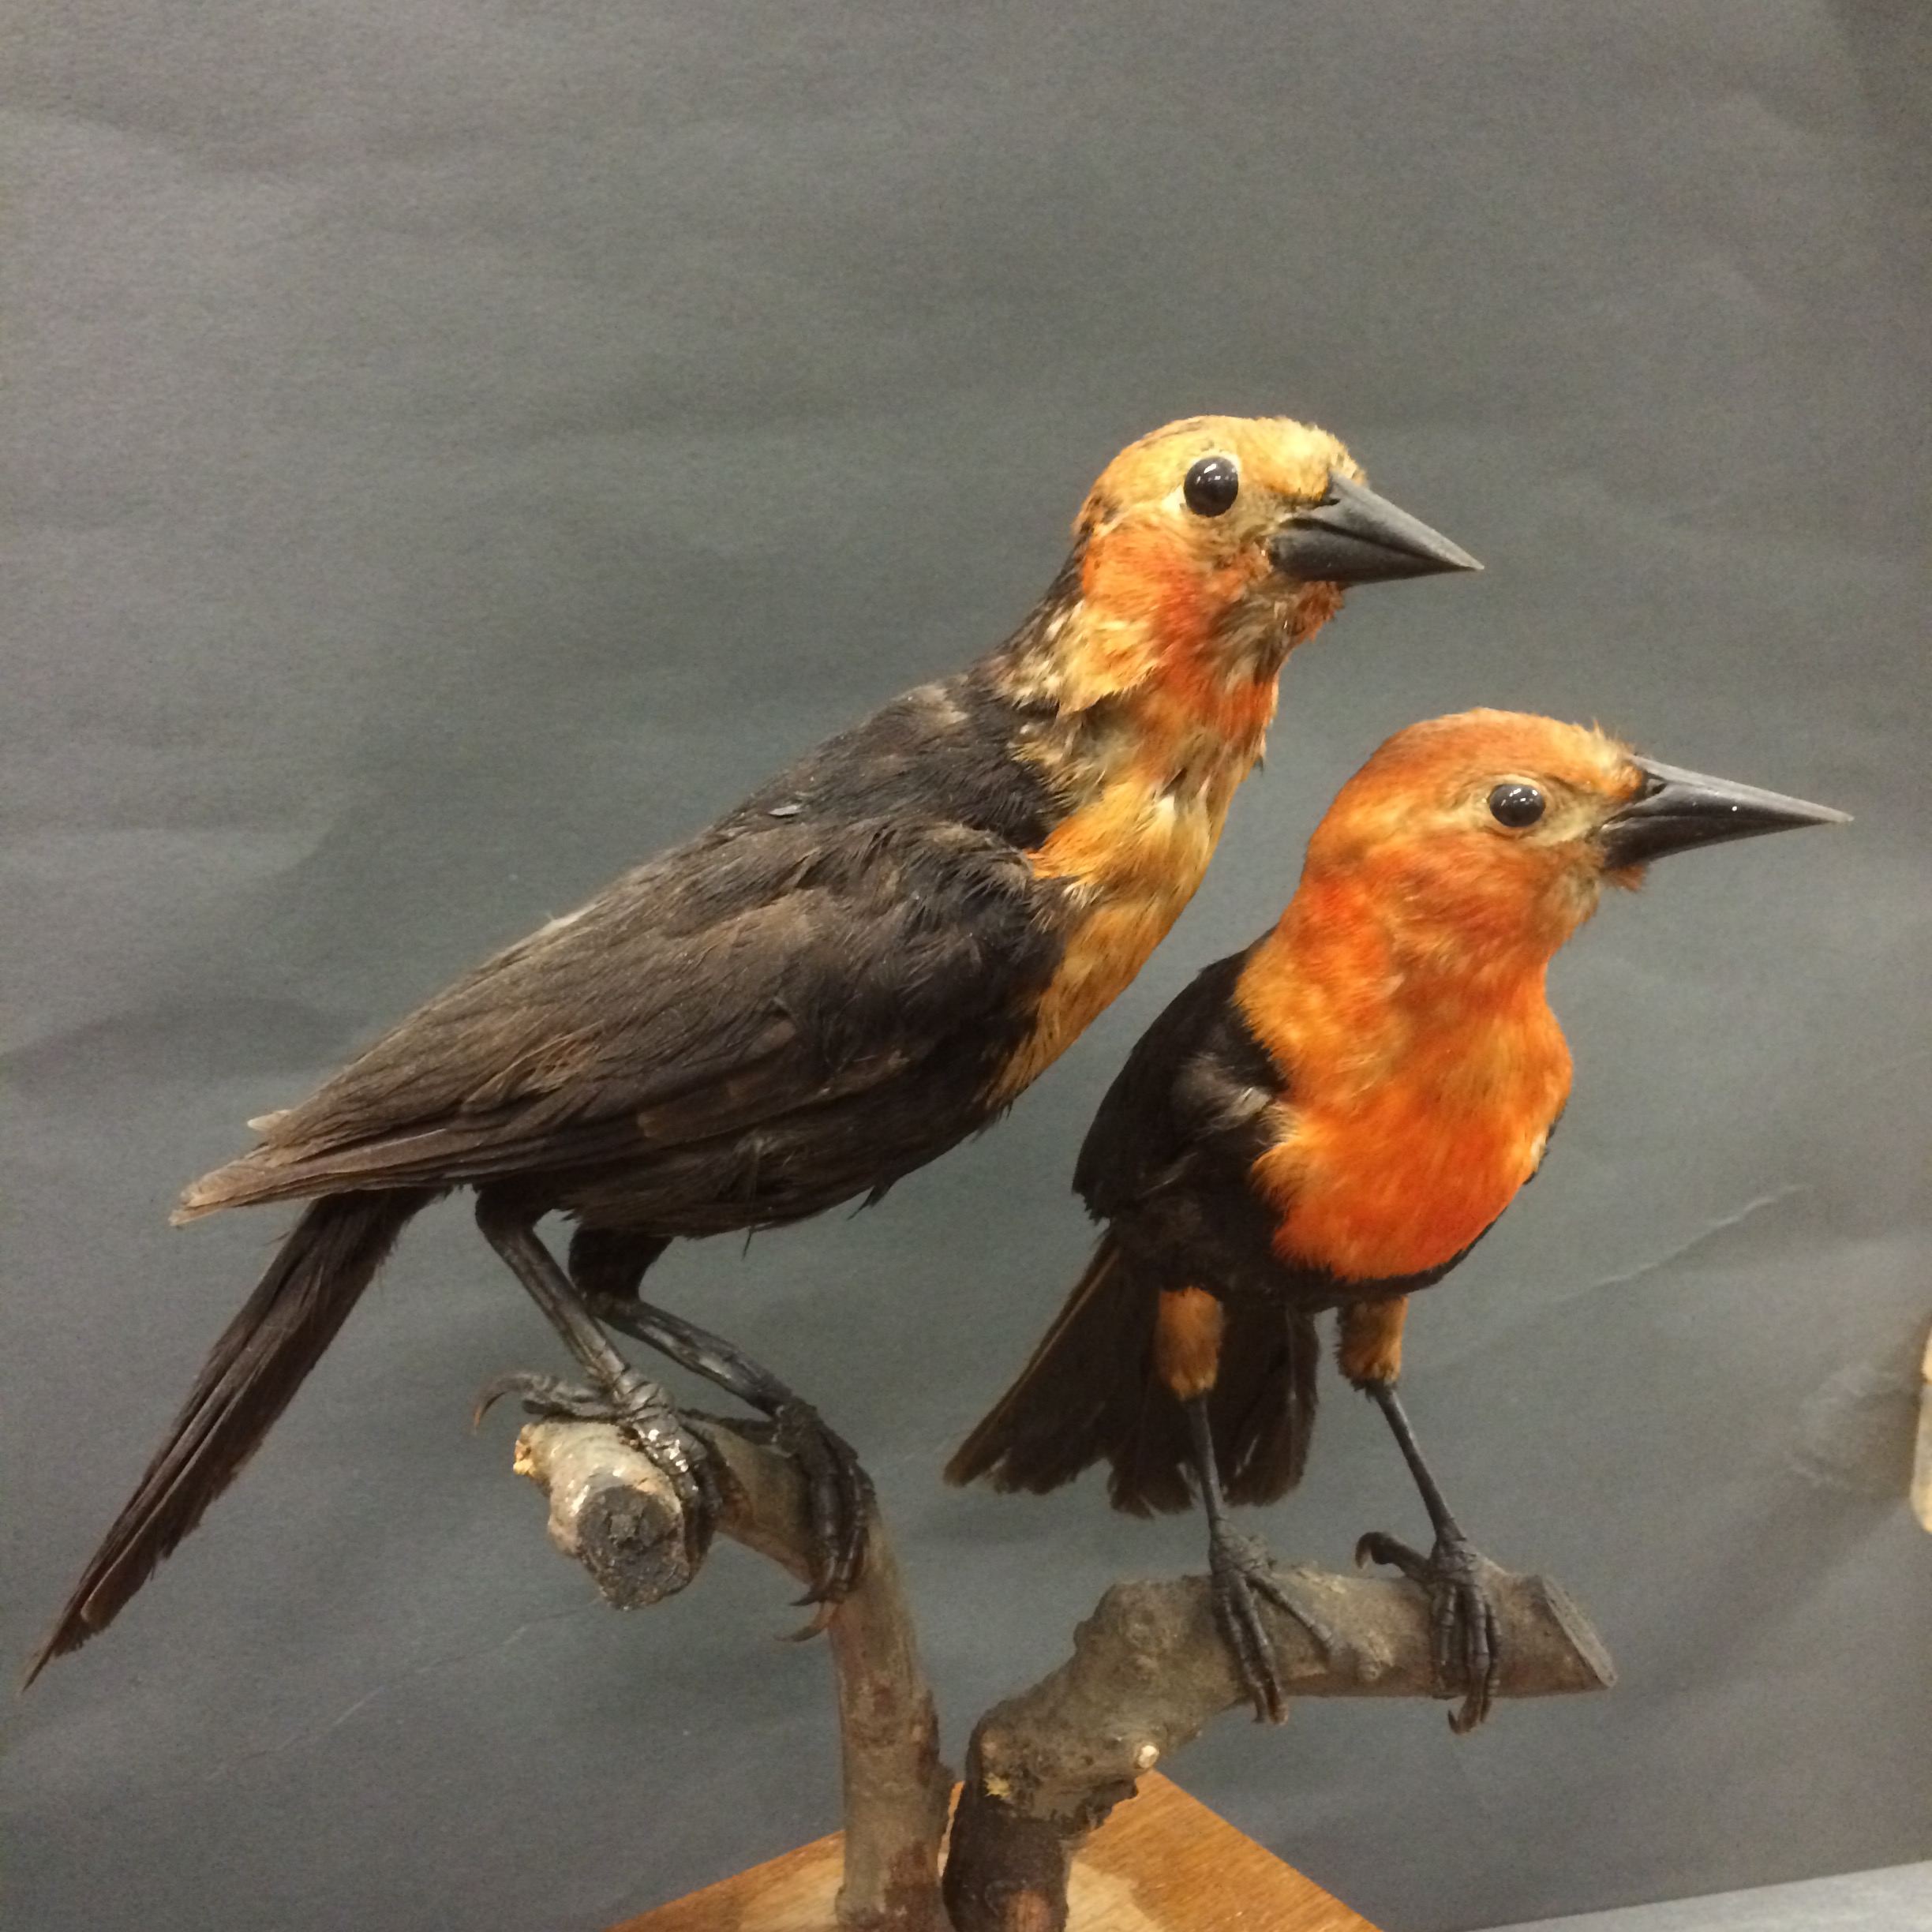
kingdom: Animalia
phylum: Chordata
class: Aves
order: Passeriformes
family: Icteridae
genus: Amblyramphus
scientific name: Amblyramphus holosericeus
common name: Scarlet-headed blackbird
